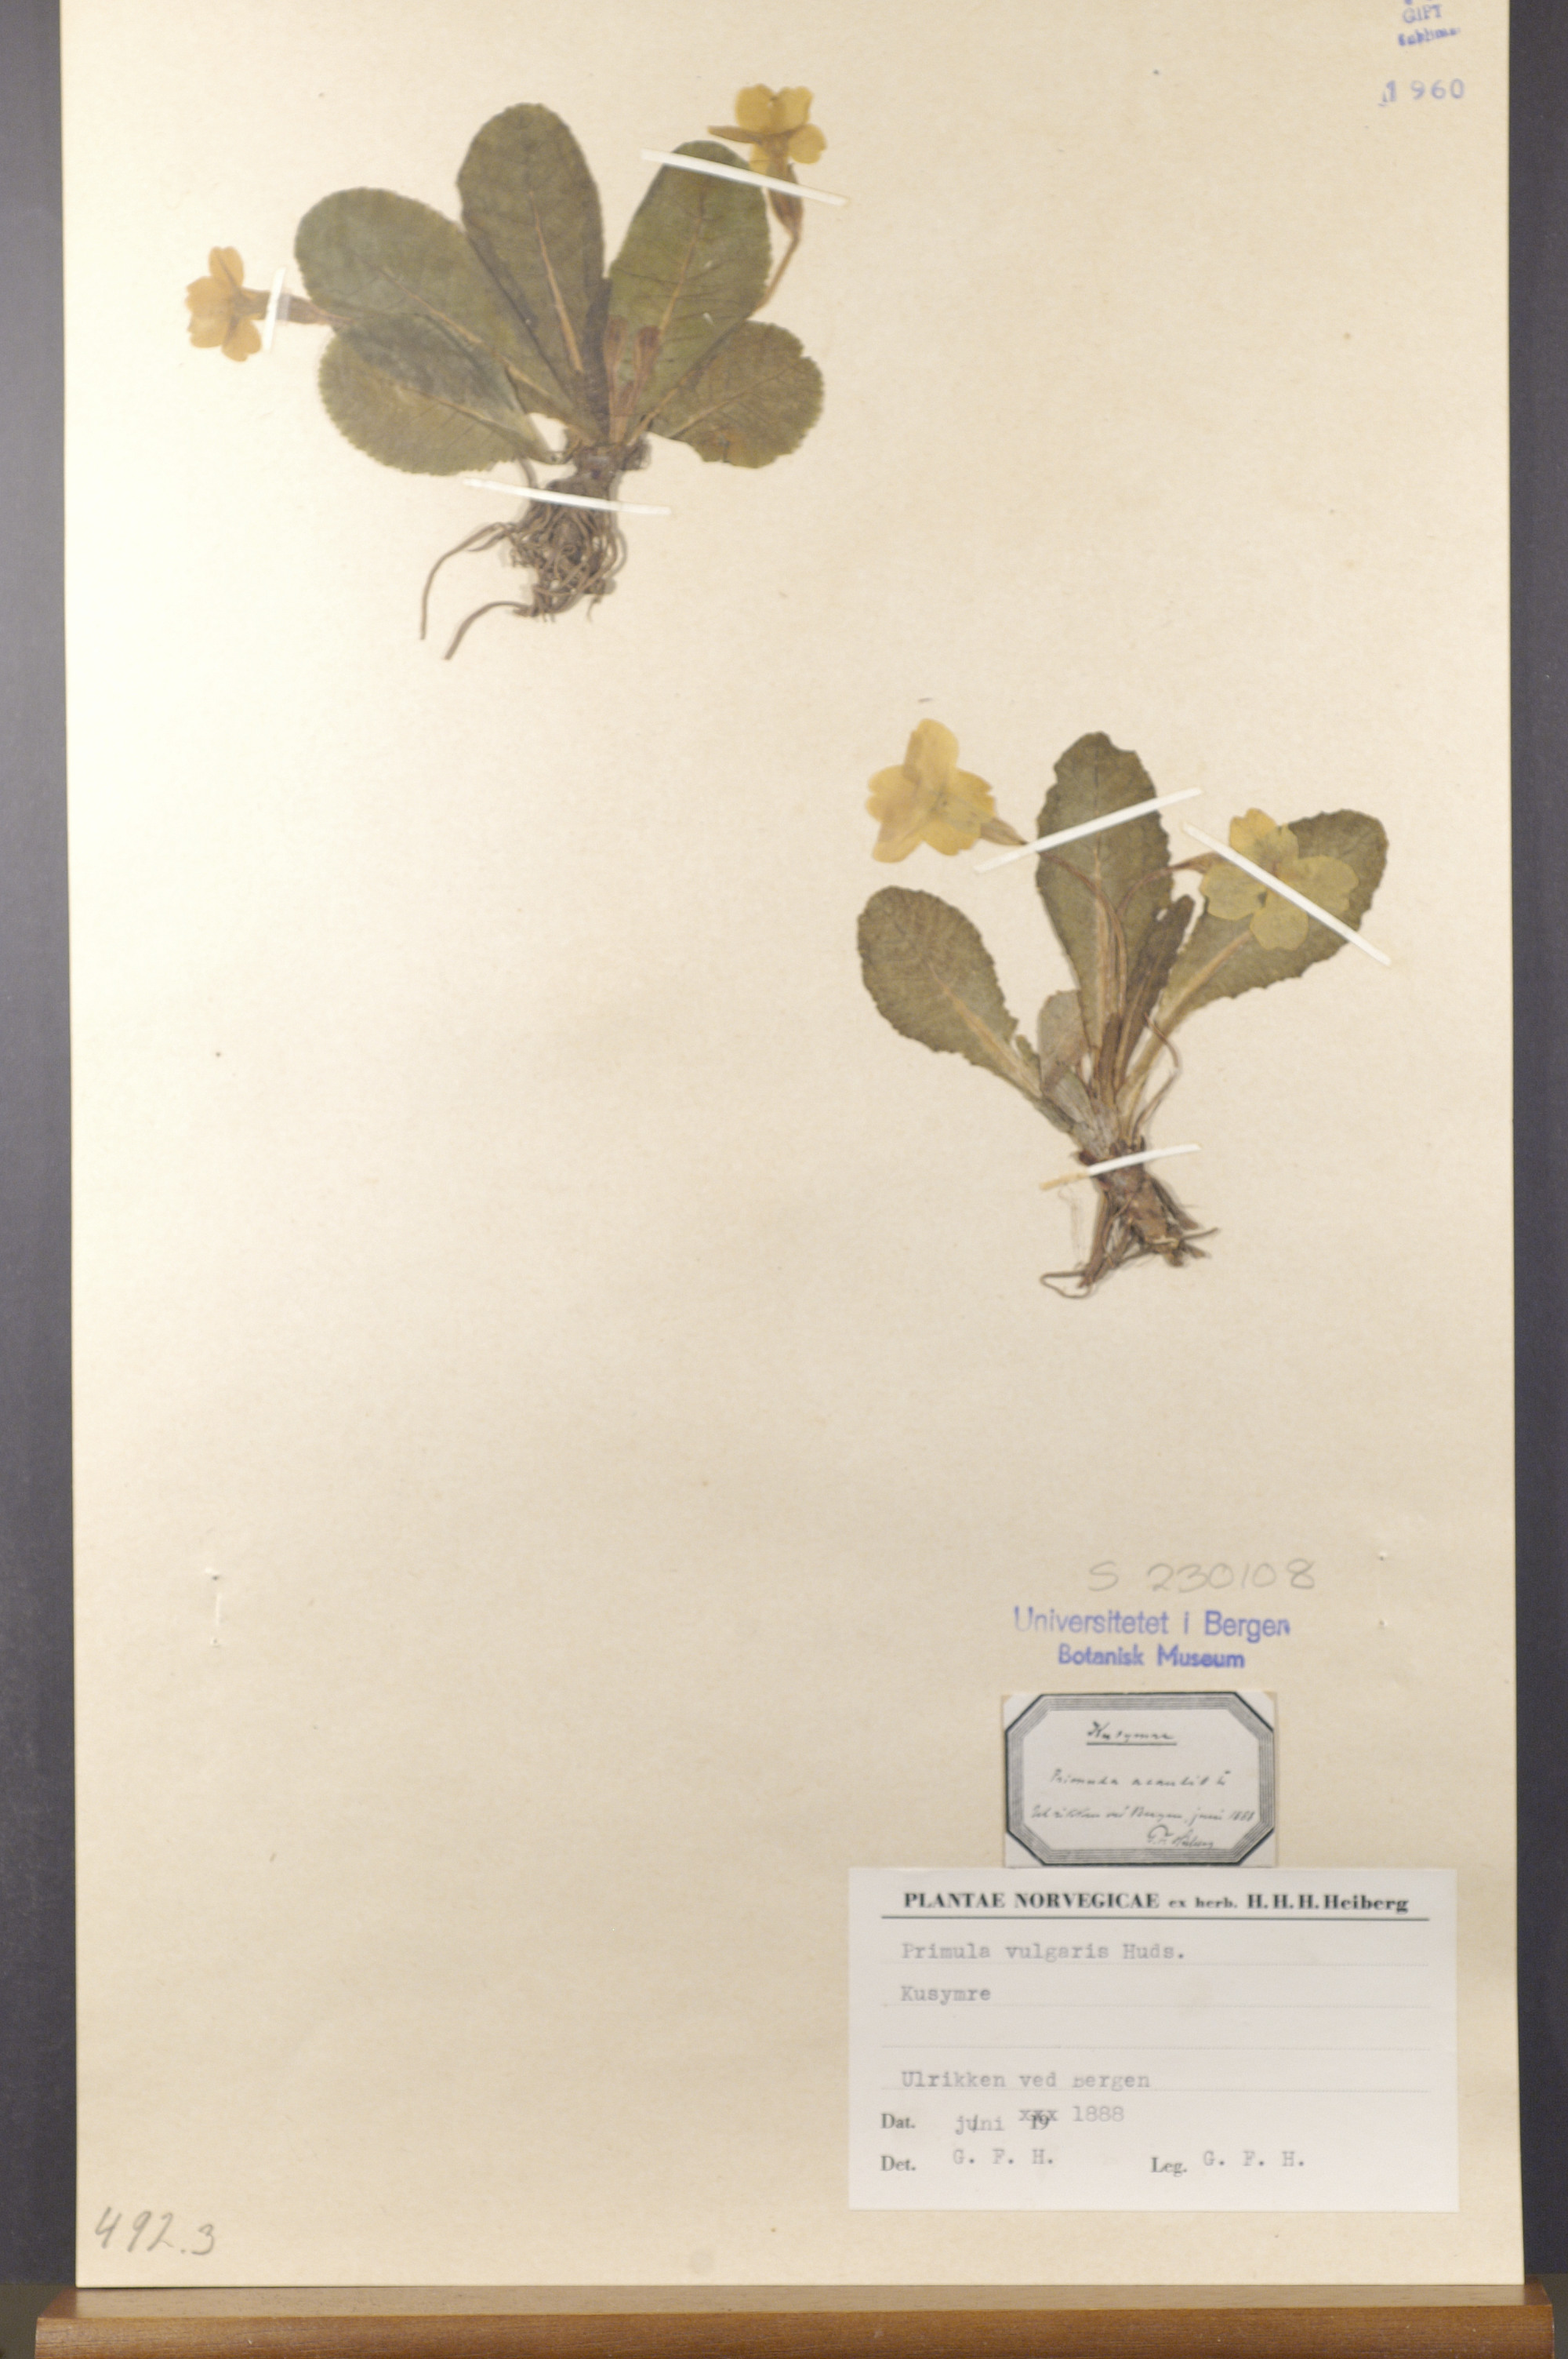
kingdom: Plantae
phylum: Tracheophyta
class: Magnoliopsida
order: Ericales
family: Primulaceae
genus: Primula
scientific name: Primula vulgaris
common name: Primrose
